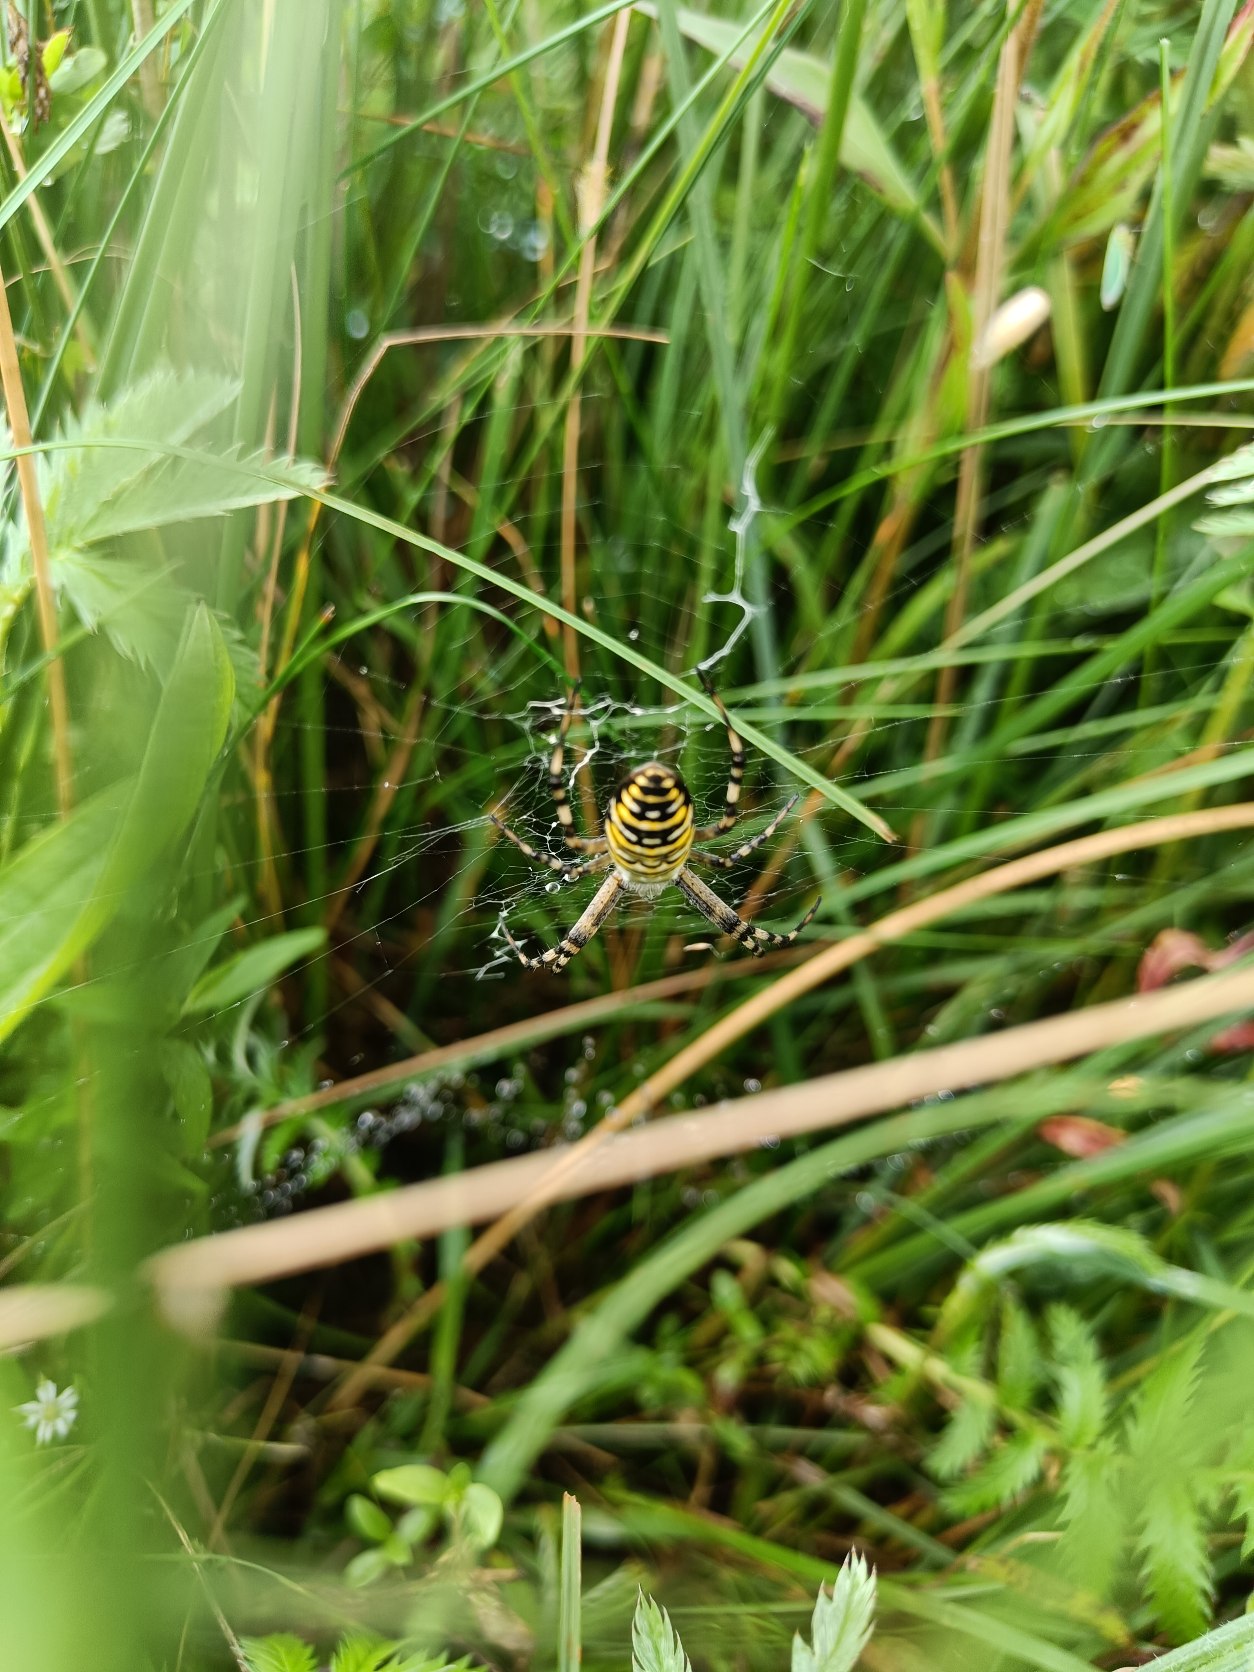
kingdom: Animalia
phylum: Arthropoda
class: Arachnida
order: Araneae
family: Araneidae
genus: Argiope
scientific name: Argiope bruennichi
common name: Hvepseedderkop
